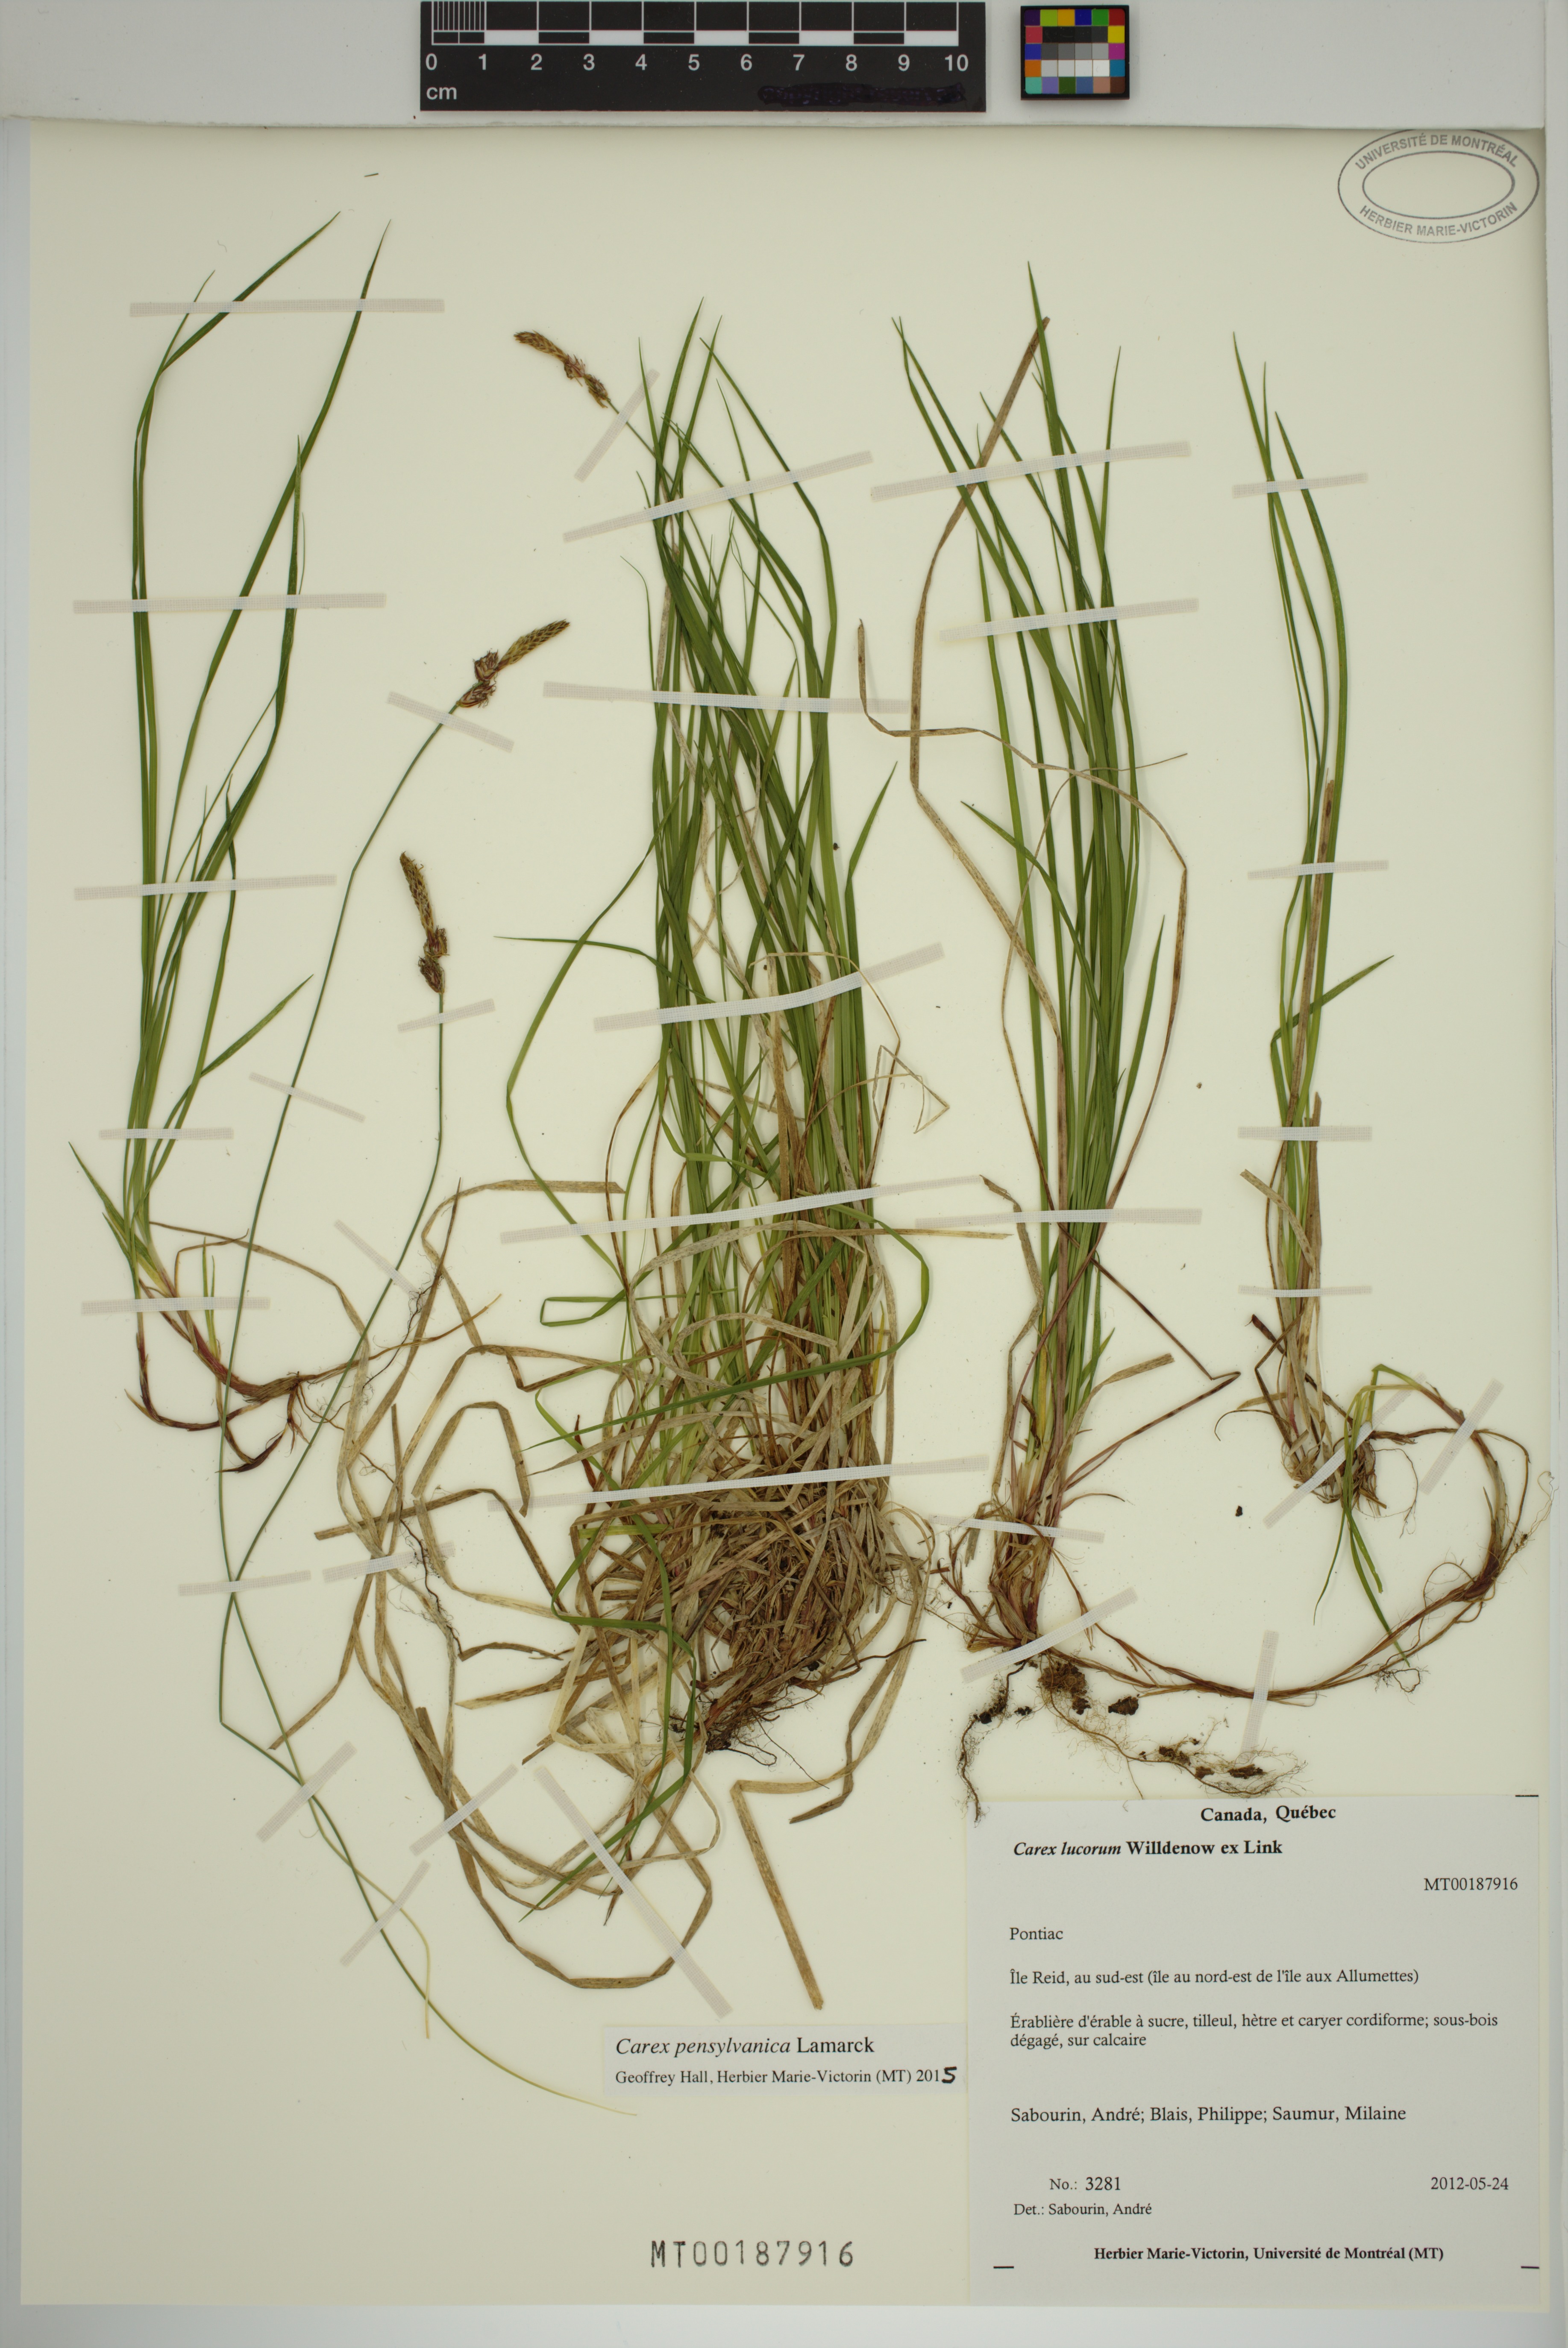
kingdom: Plantae
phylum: Tracheophyta
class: Liliopsida
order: Poales
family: Cyperaceae
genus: Carex
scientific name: Carex pensylvanica
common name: Common oak sedge
